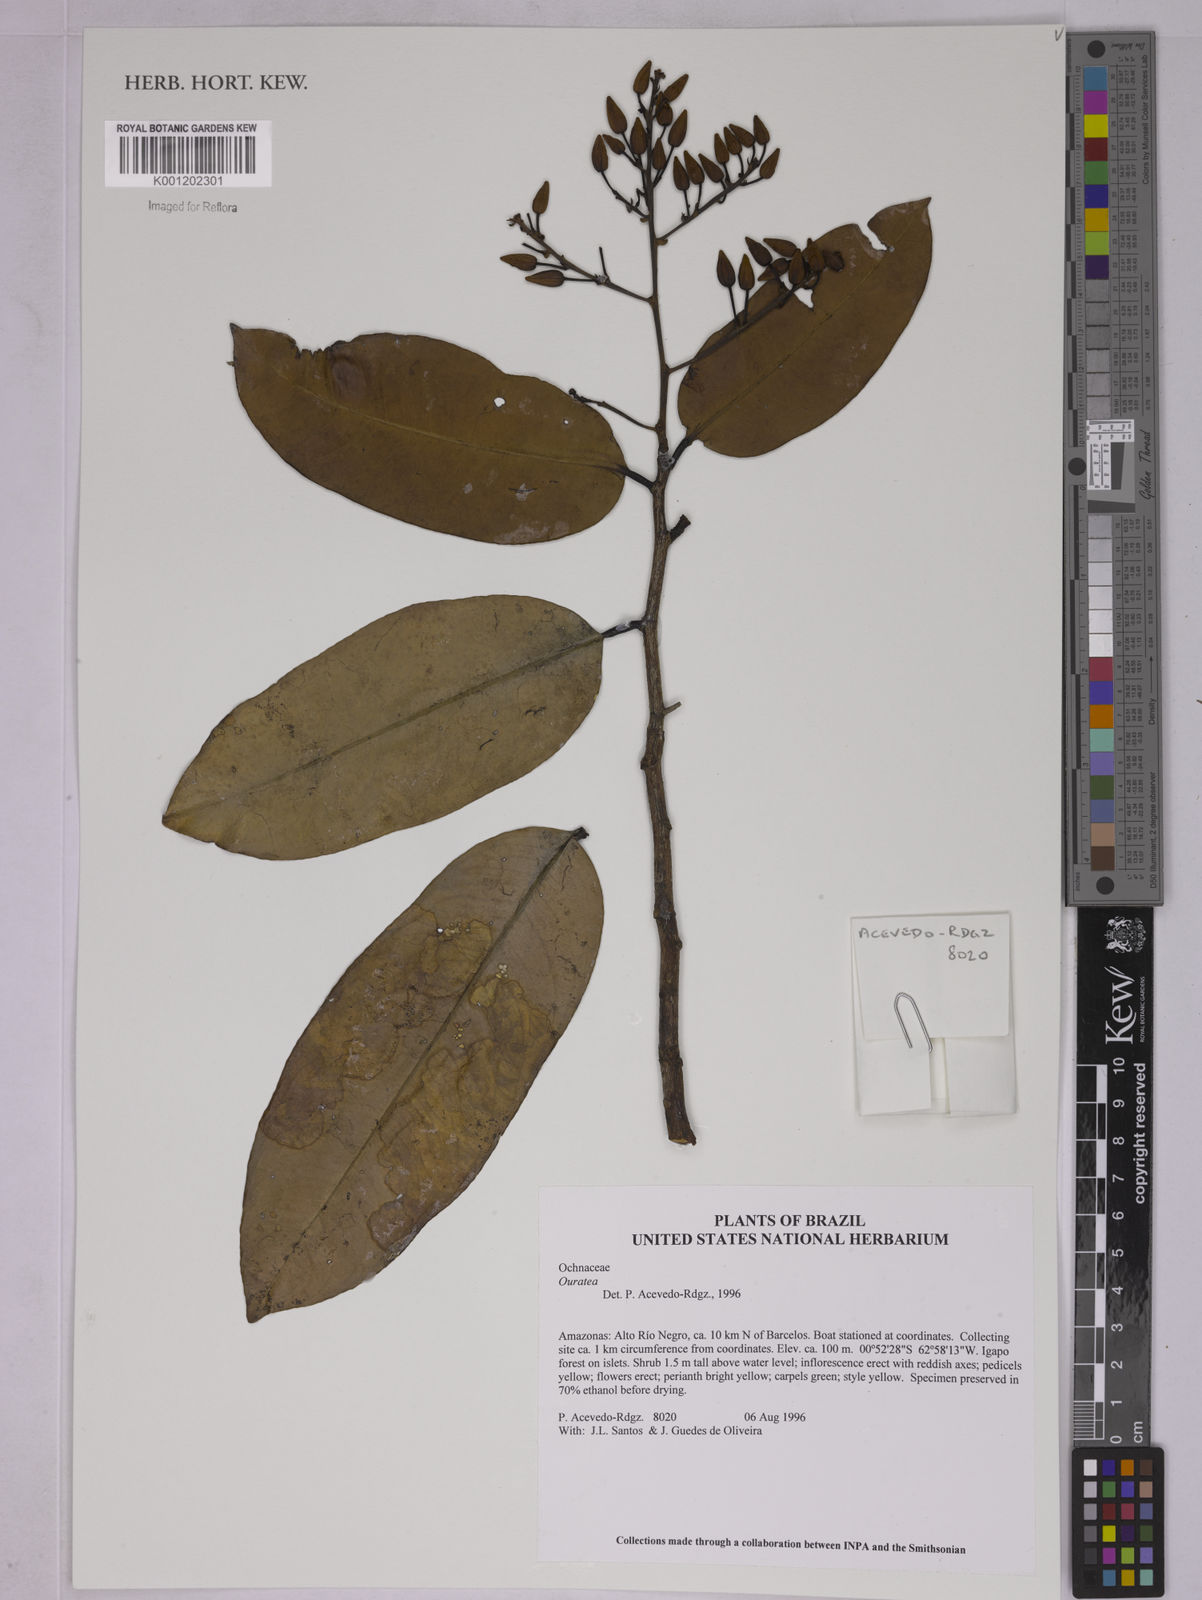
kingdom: Plantae
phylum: Tracheophyta
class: Magnoliopsida
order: Malpighiales
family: Ochnaceae
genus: Ouratea
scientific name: Ouratea
